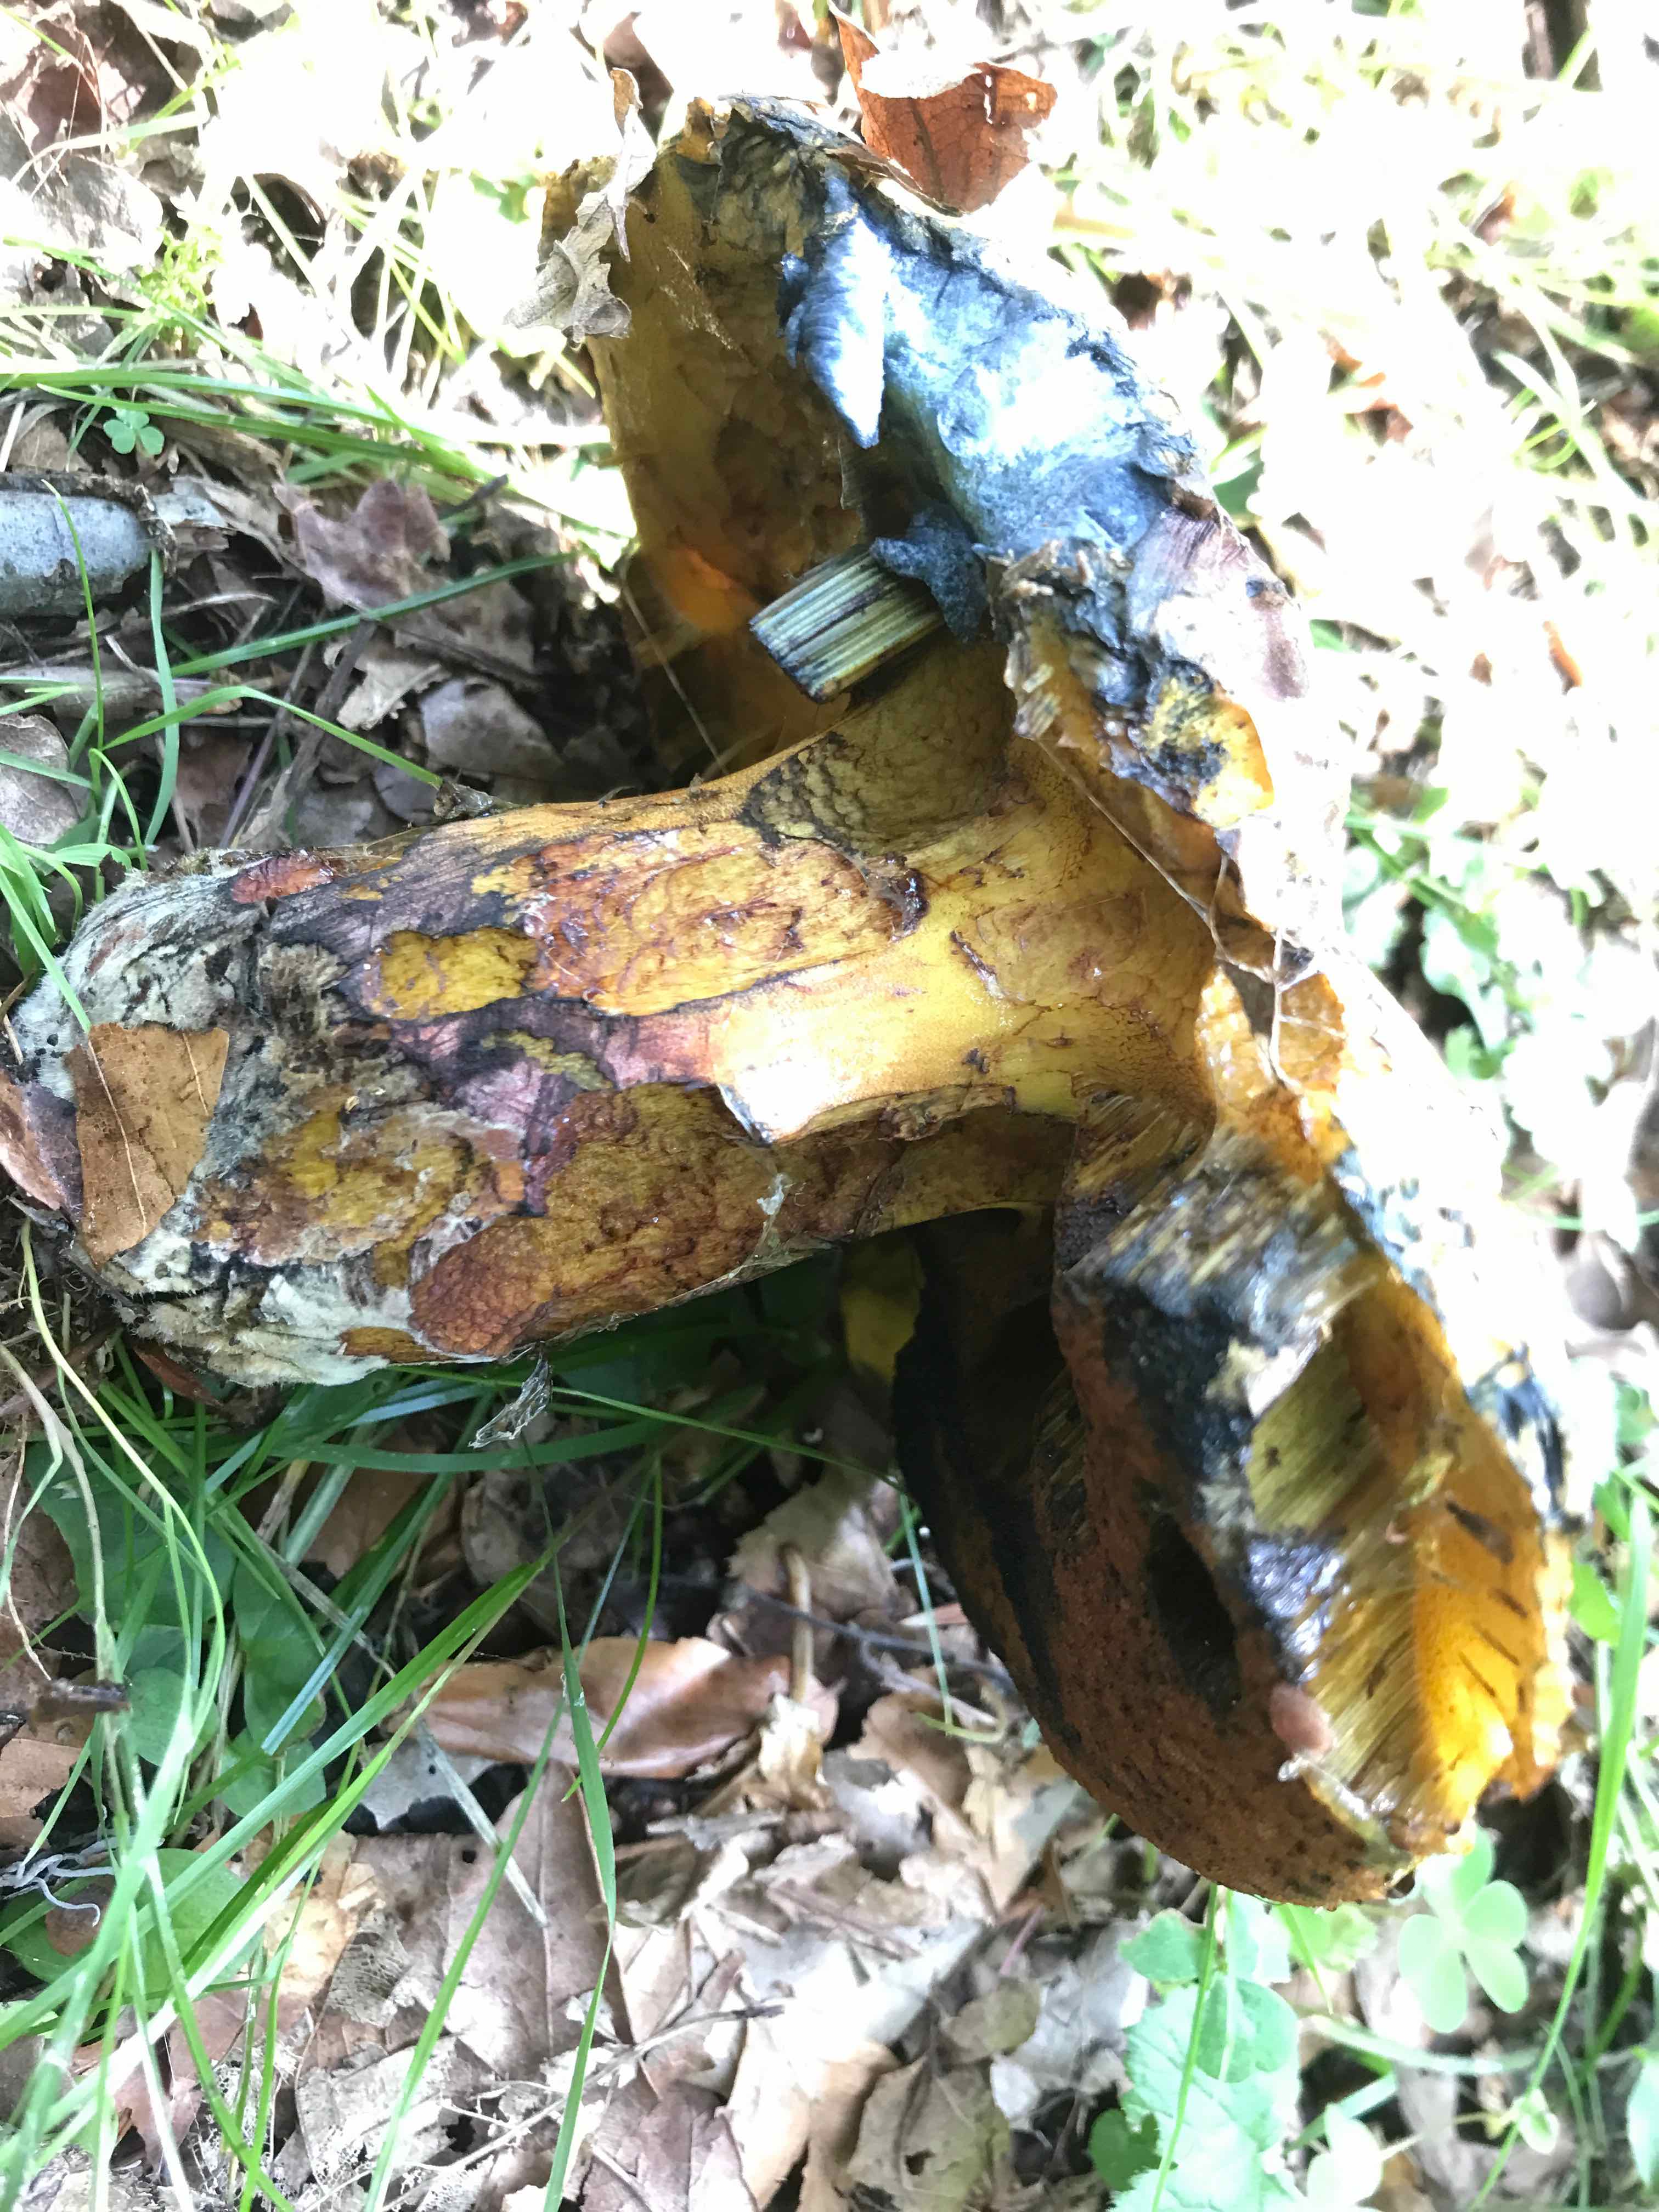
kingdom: Fungi
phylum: Basidiomycota
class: Agaricomycetes
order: Boletales
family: Boletaceae
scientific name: Boletaceae
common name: rørhatfamilien
